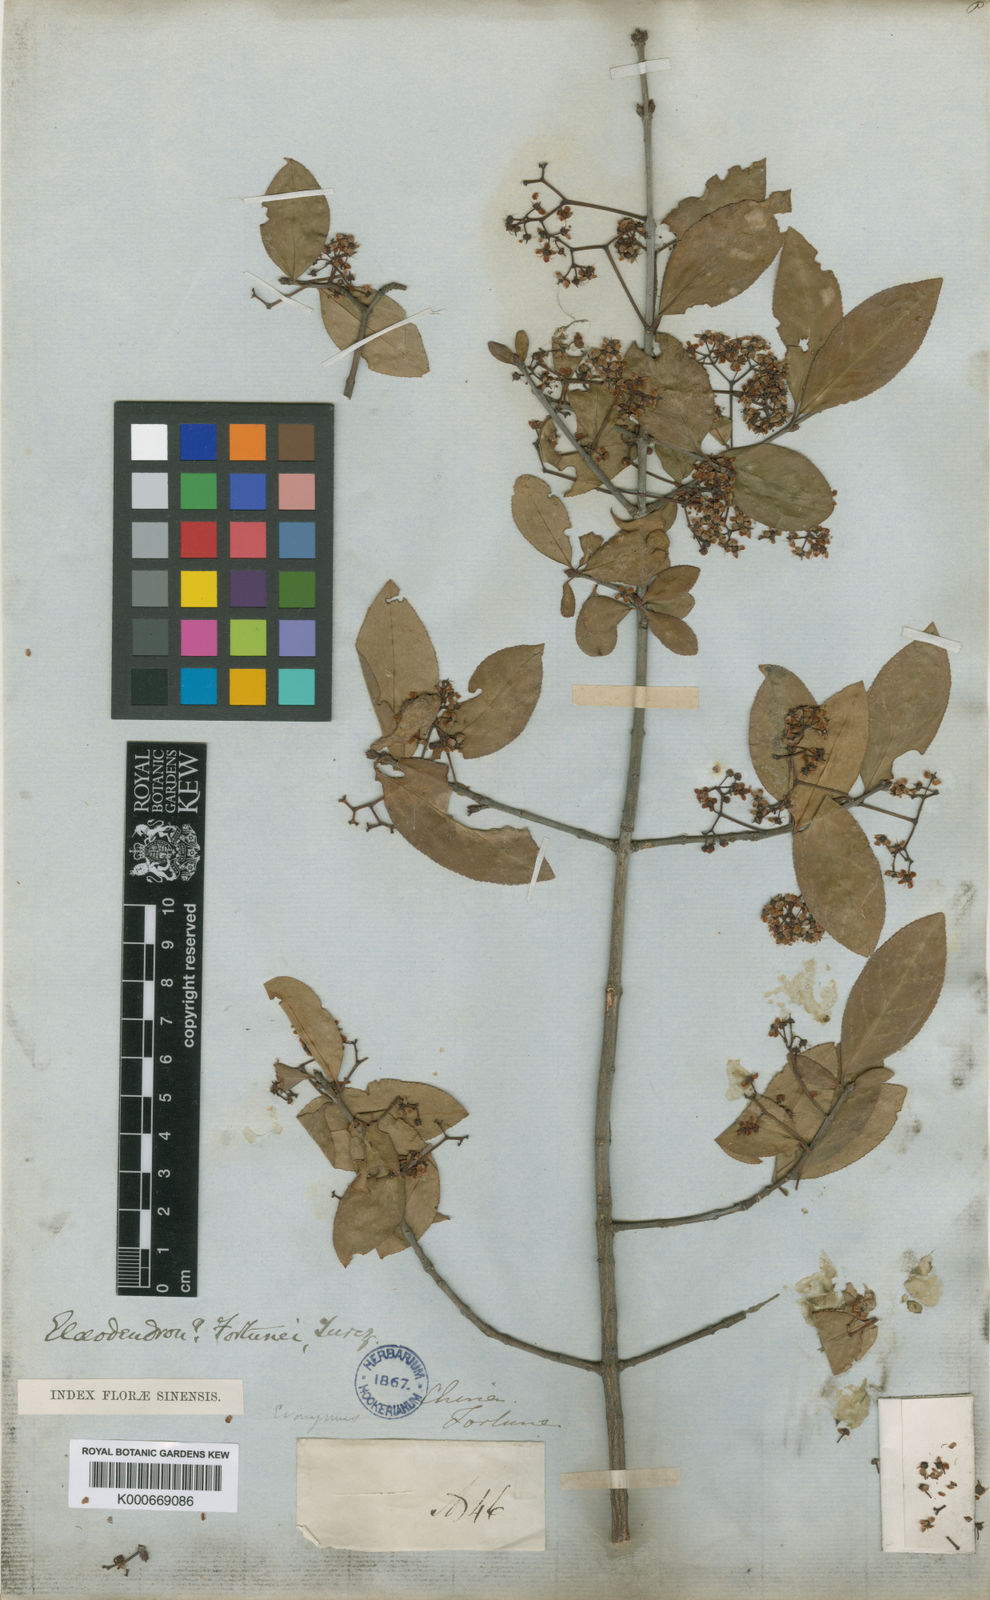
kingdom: Plantae
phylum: Tracheophyta
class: Magnoliopsida
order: Celastrales
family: Celastraceae
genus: Euonymus
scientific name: Euonymus fortunei
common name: Climbing euonymus
